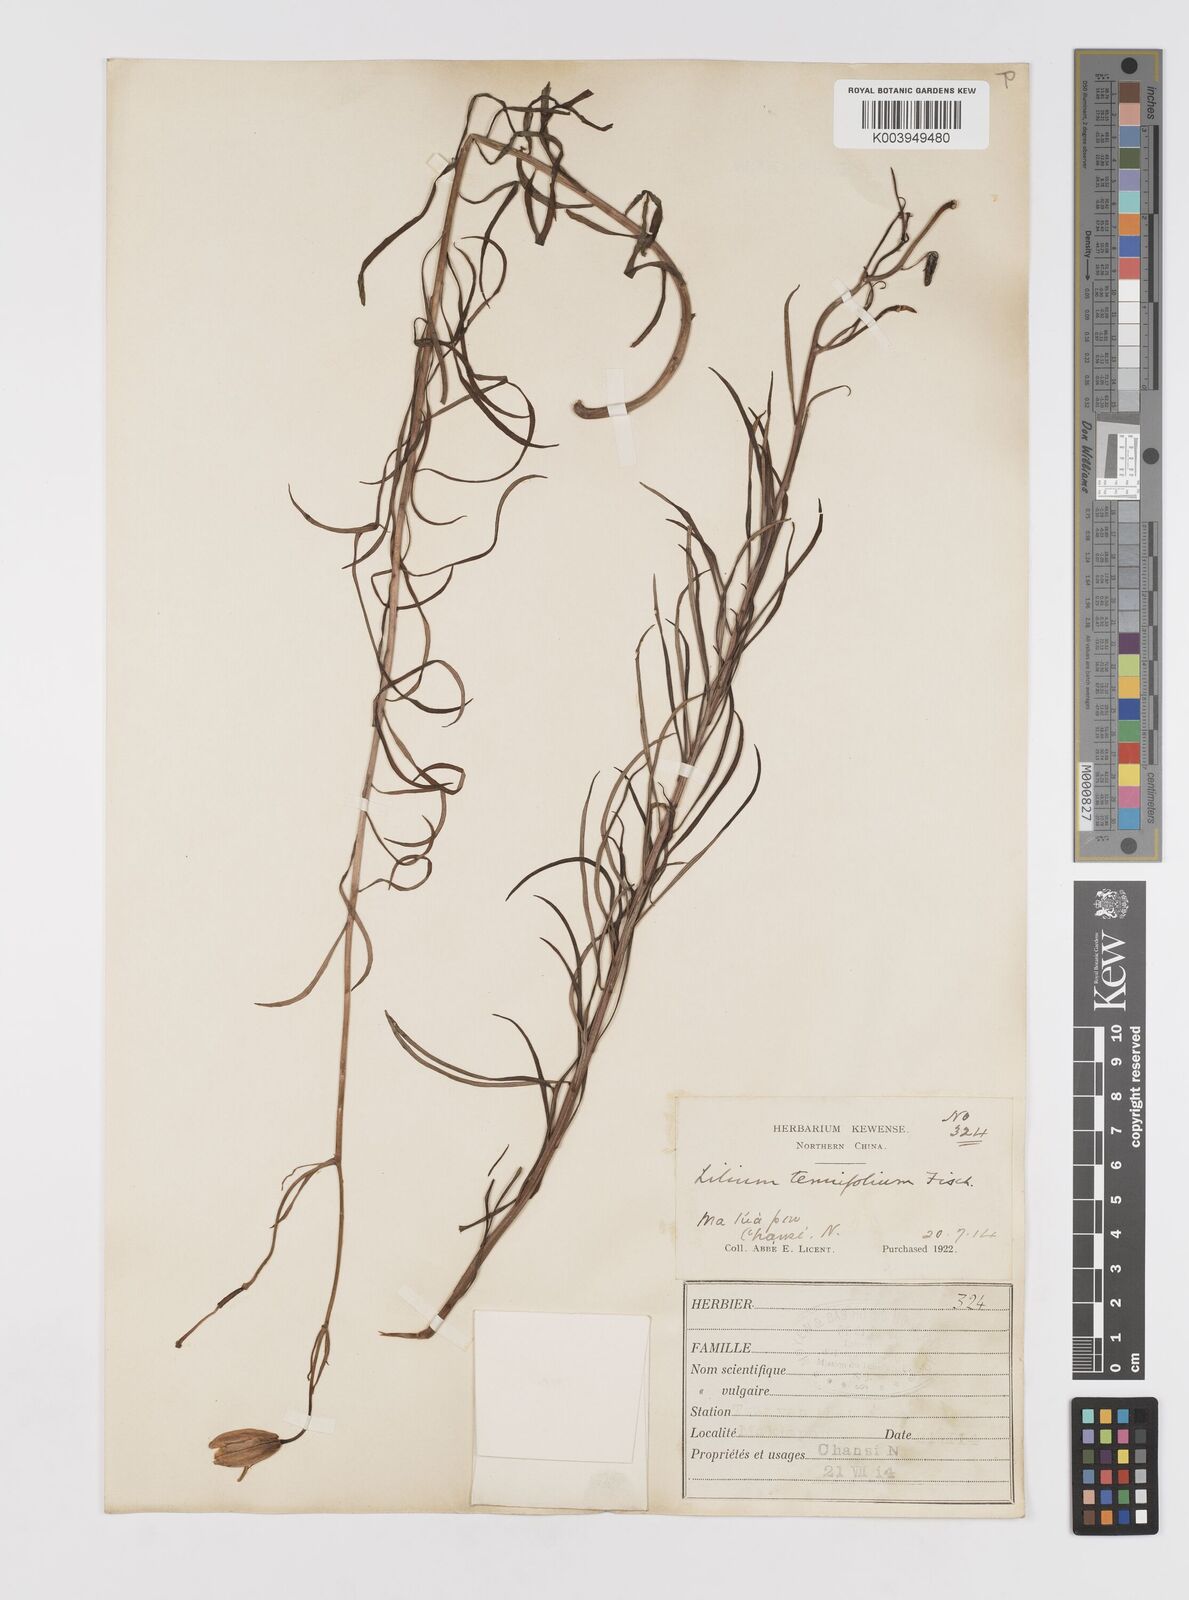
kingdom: Plantae
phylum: Tracheophyta
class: Liliopsida
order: Liliales
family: Liliaceae
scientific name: Liliaceae
